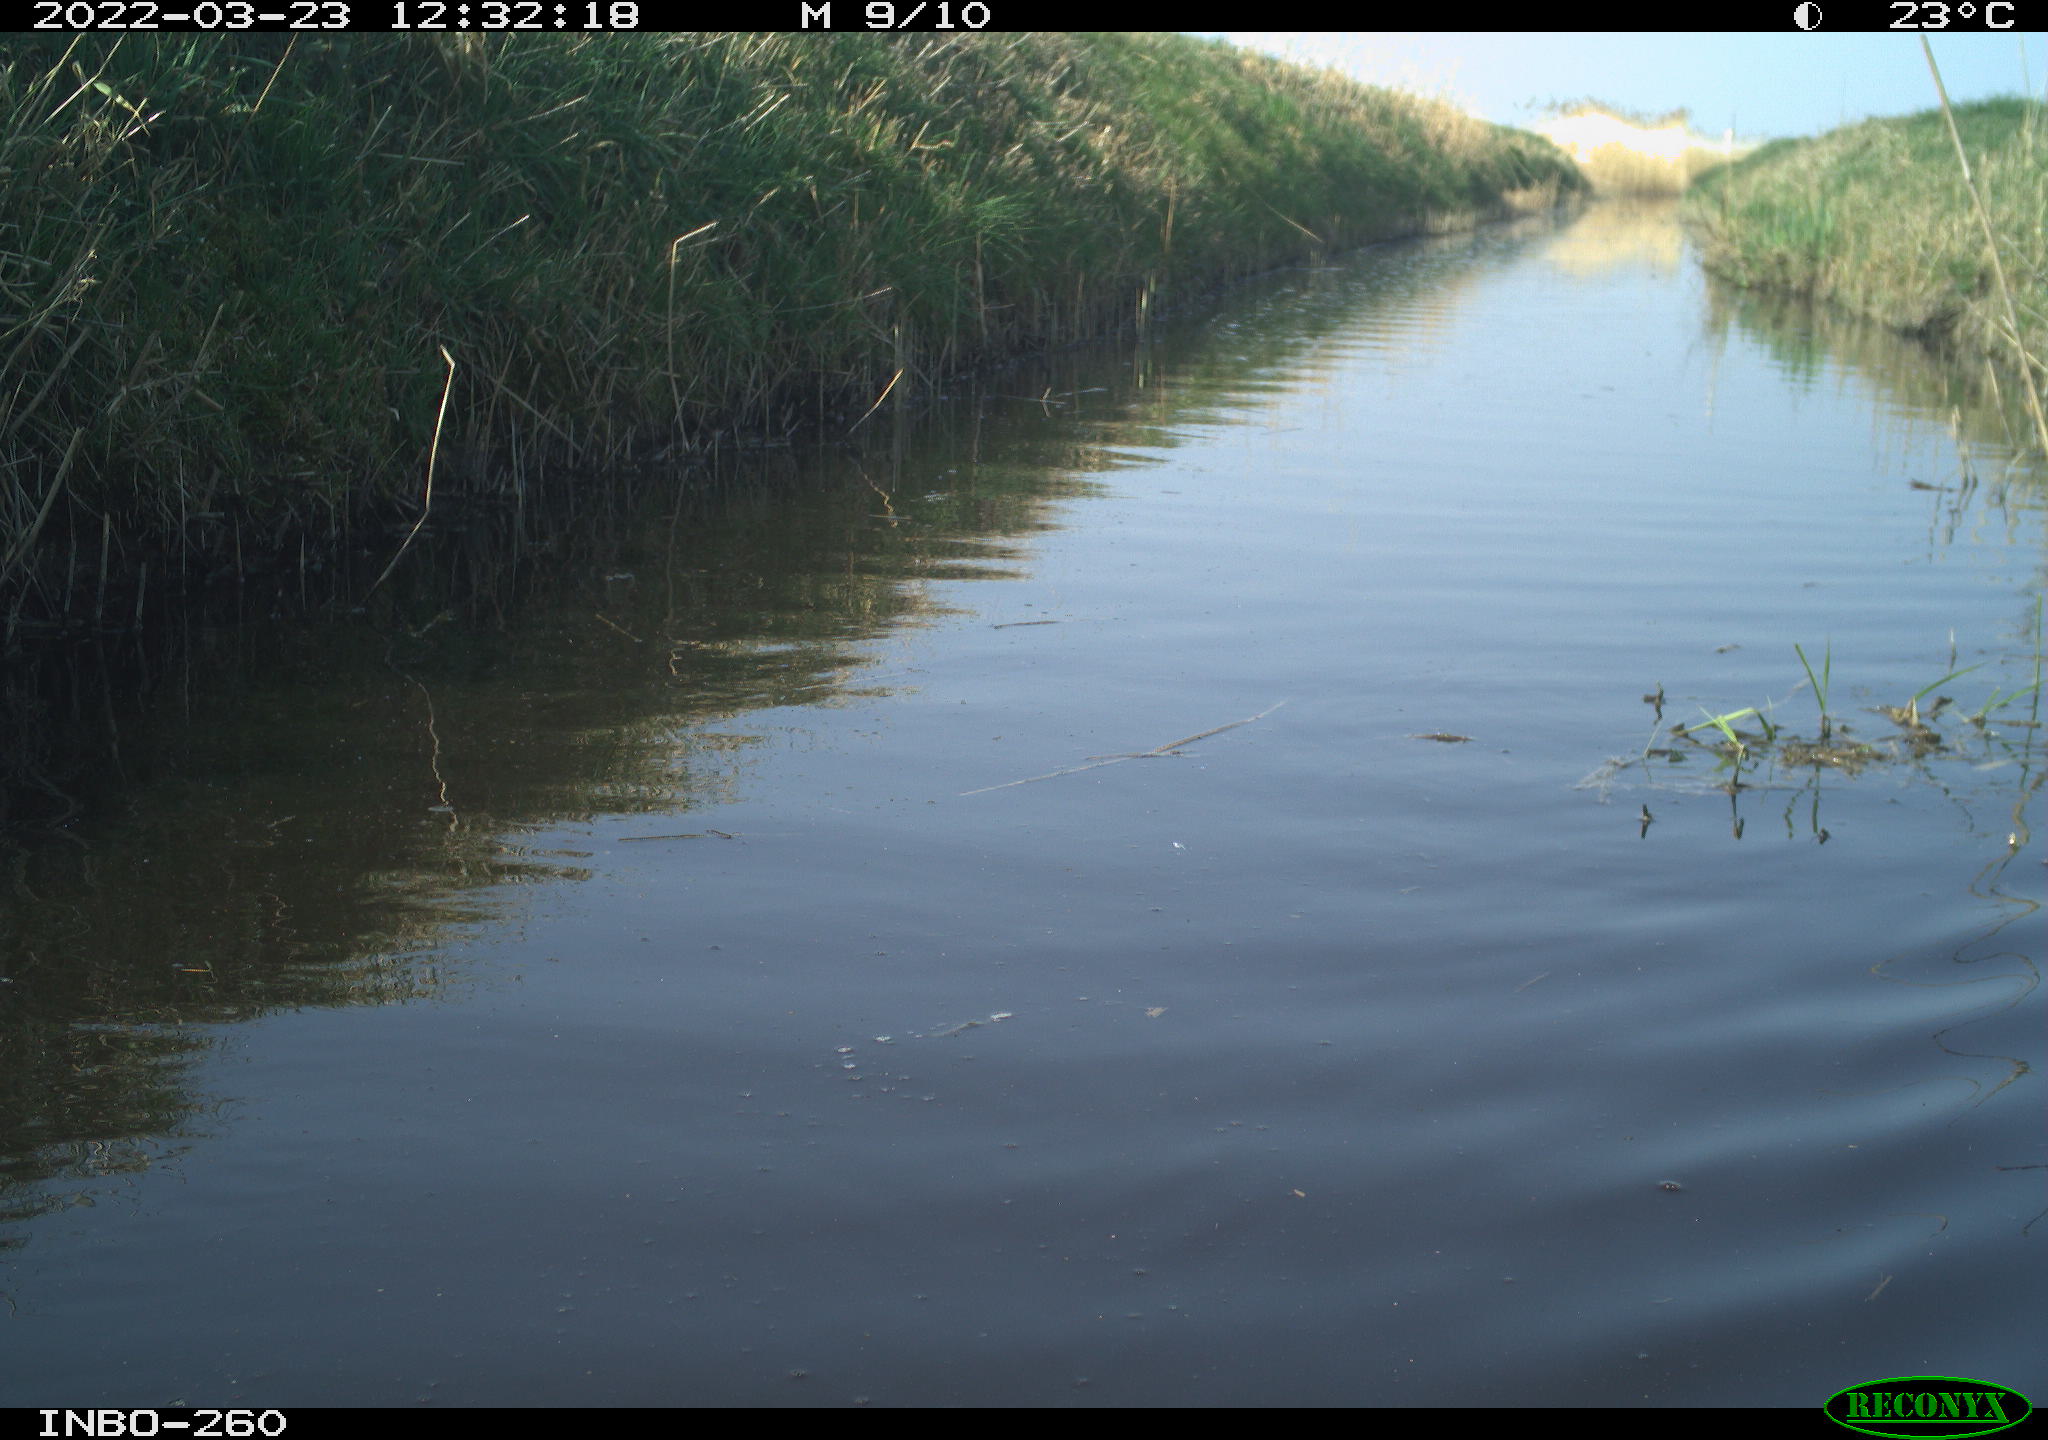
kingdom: Animalia
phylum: Chordata
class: Aves
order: Gruiformes
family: Rallidae
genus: Fulica
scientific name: Fulica atra
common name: Eurasian coot
